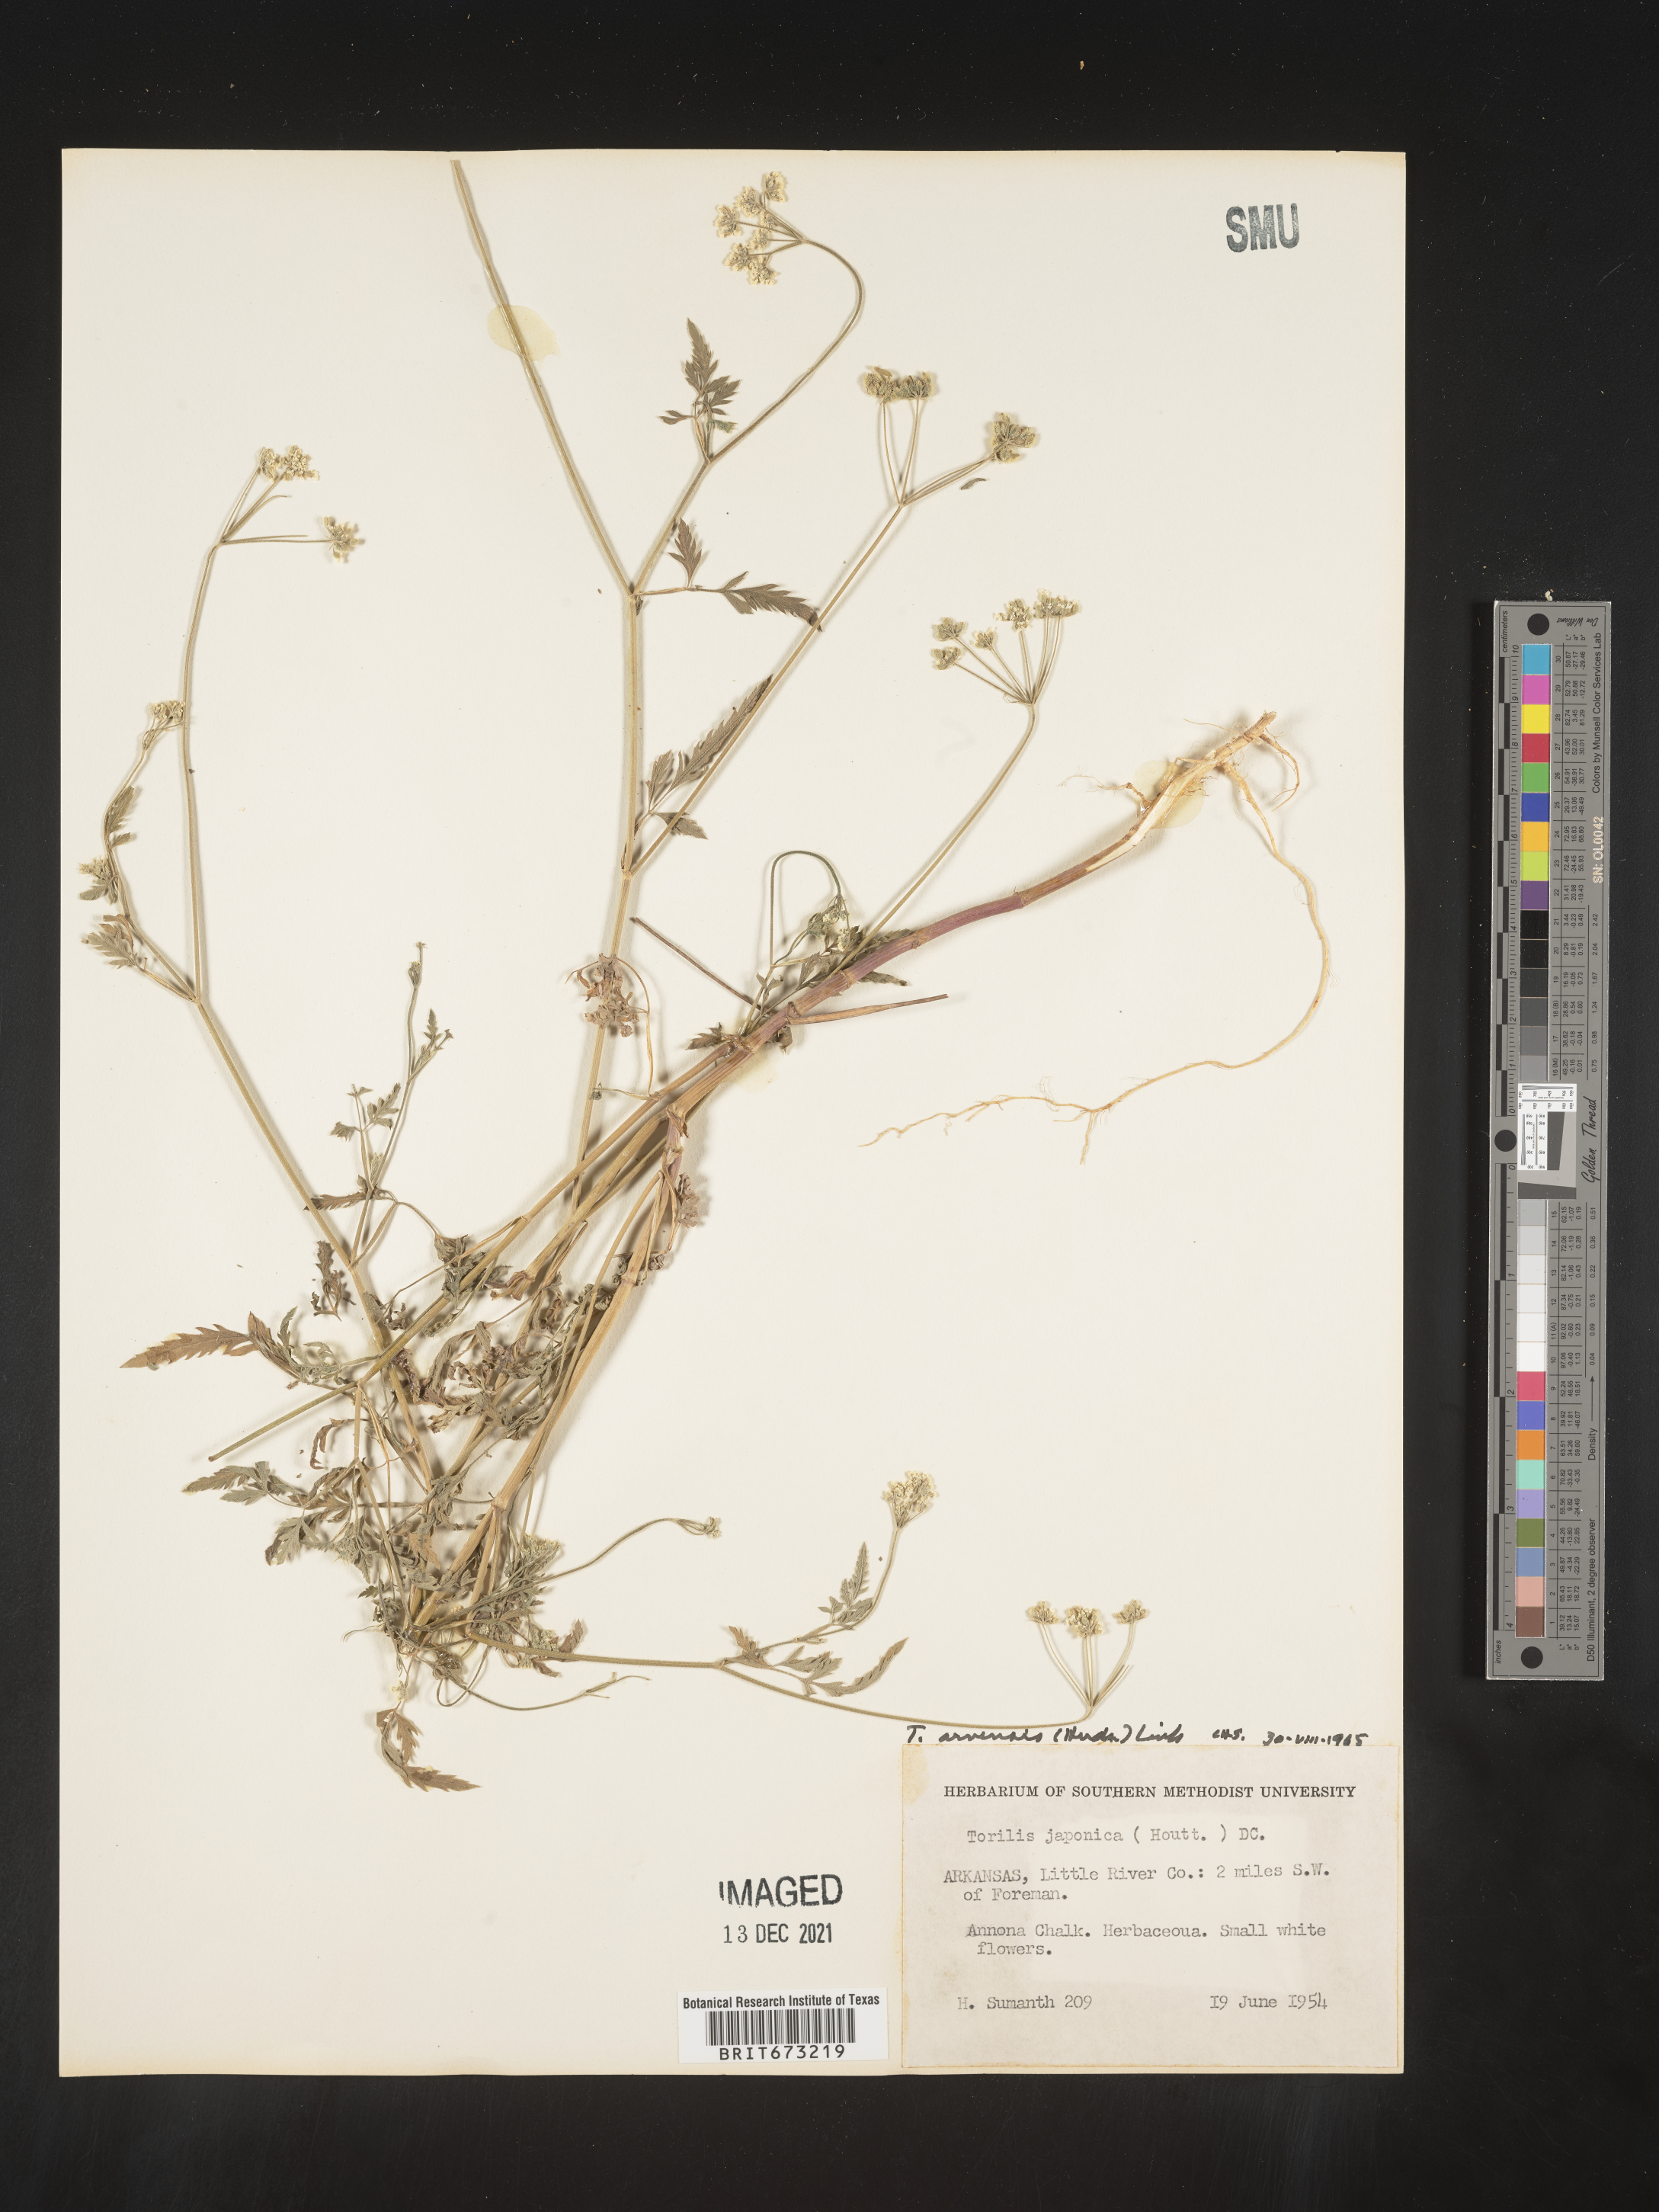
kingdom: Plantae
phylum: Tracheophyta
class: Magnoliopsida
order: Apiales
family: Apiaceae
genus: Torilis
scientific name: Torilis arvensis
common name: Spreading hedge-parsley
